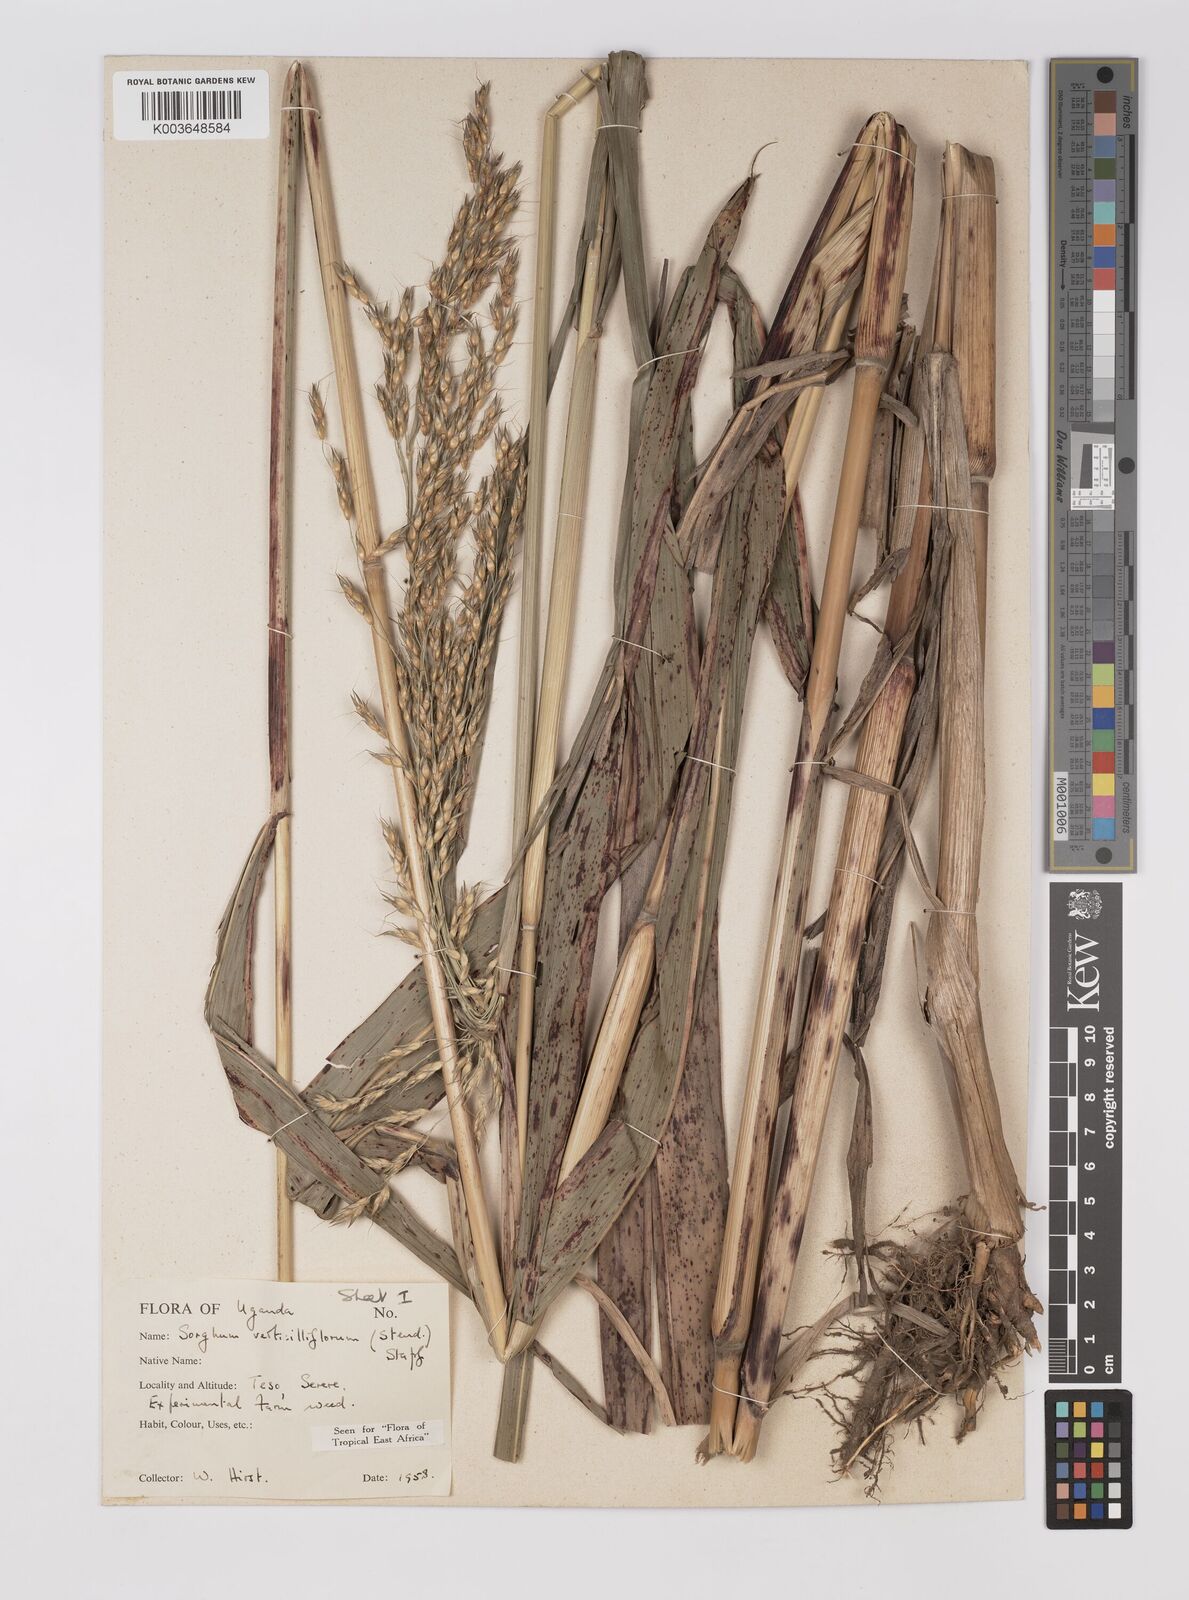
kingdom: Plantae
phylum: Tracheophyta
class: Liliopsida
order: Poales
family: Poaceae
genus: Sorghum
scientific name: Sorghum arundinaceum
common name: Sorghum
